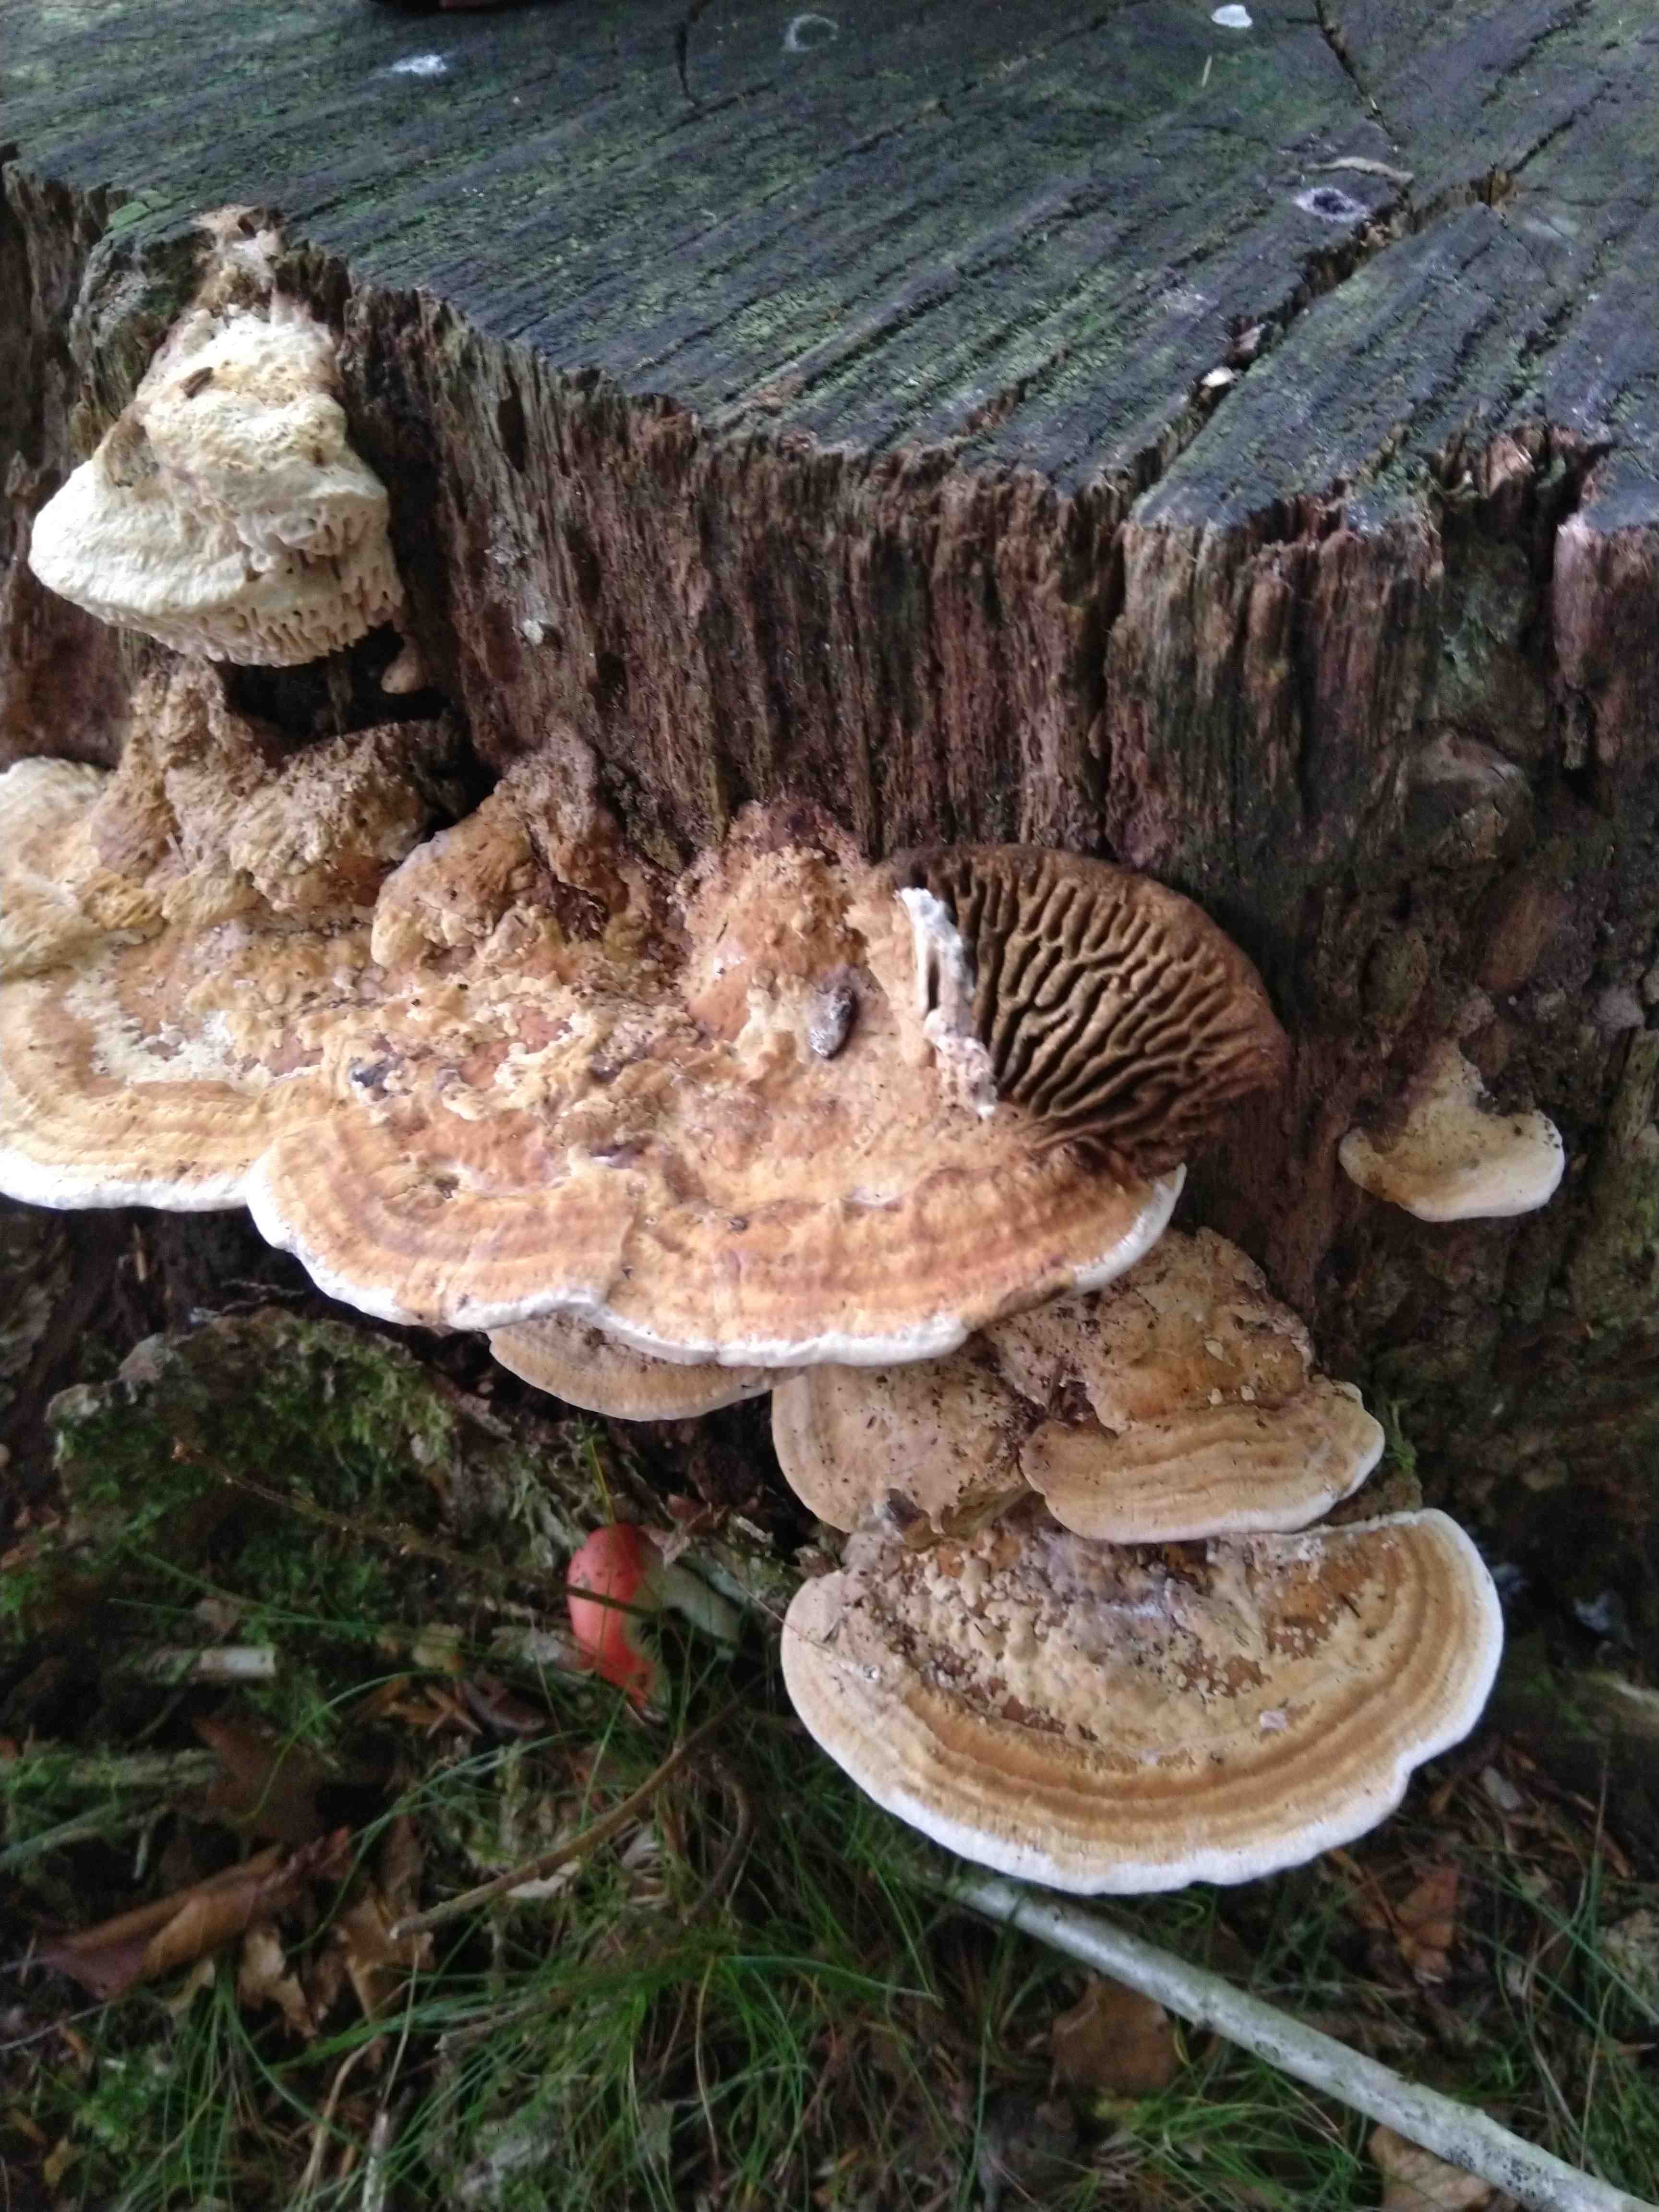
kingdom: Fungi
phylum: Basidiomycota
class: Agaricomycetes
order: Polyporales
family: Fomitopsidaceae
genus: Daedalea
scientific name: Daedalea quercina
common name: ege-labyrintsvamp
